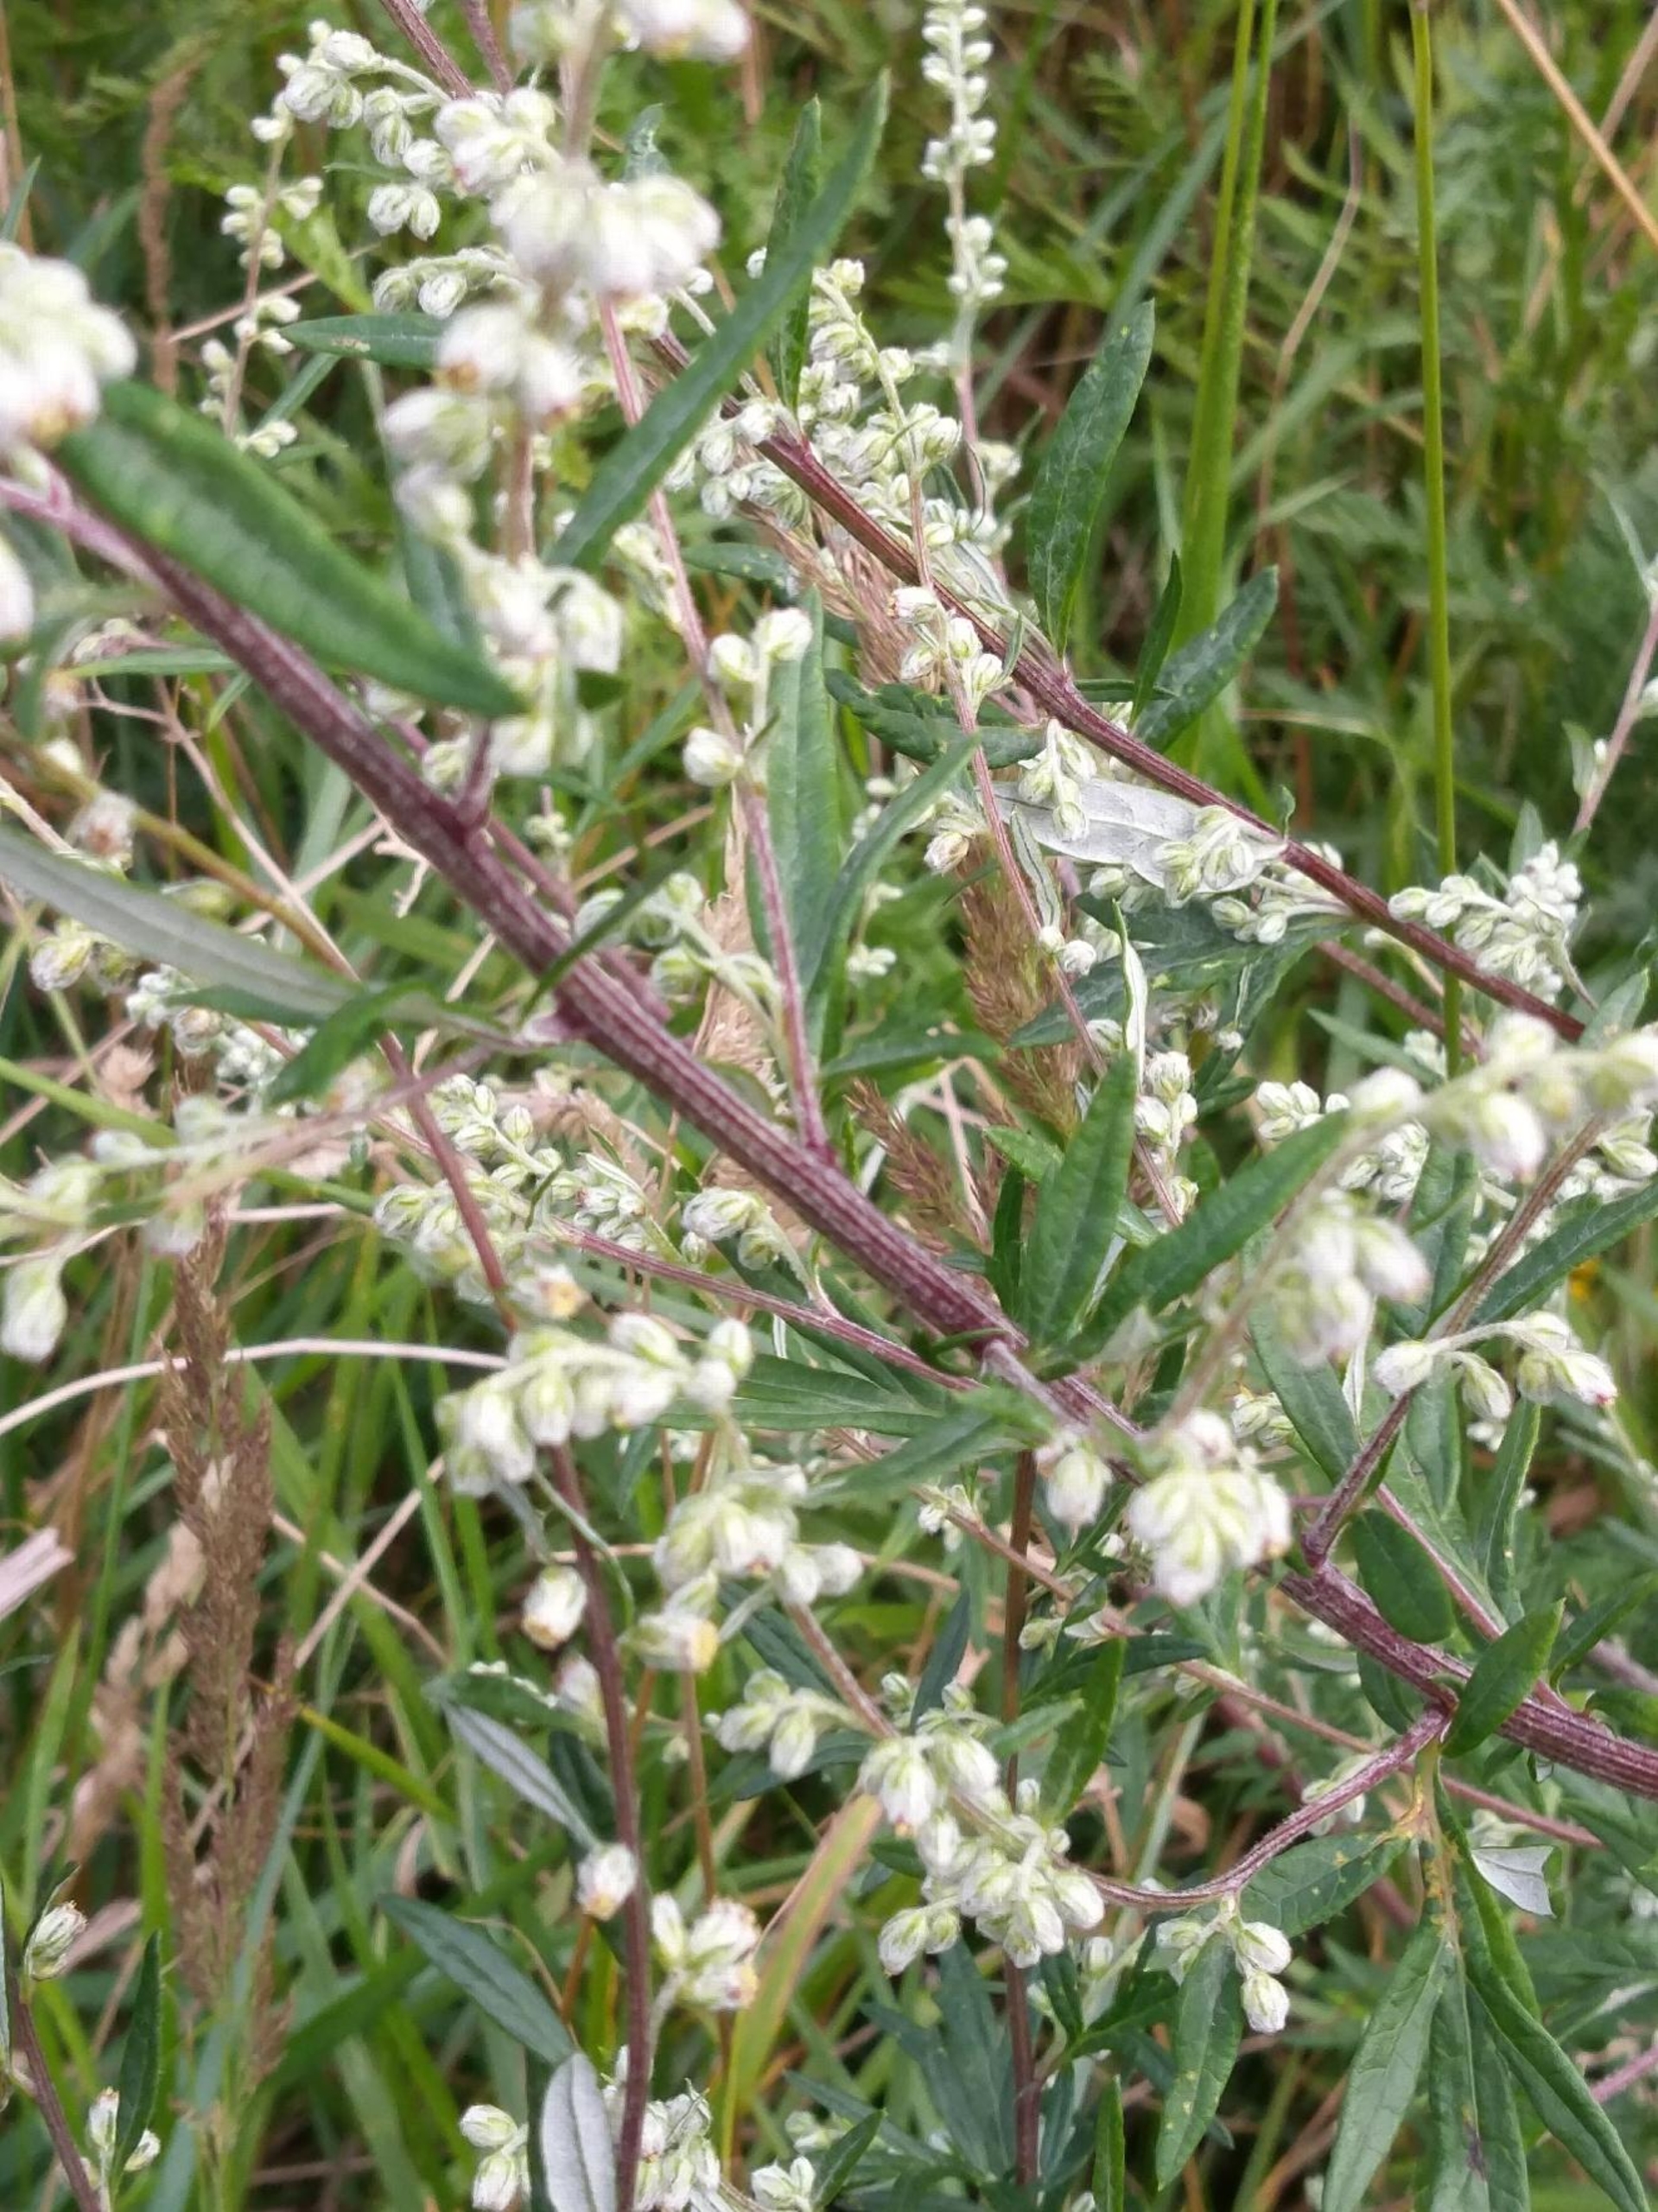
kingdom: Plantae
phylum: Tracheophyta
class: Magnoliopsida
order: Asterales
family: Asteraceae
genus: Artemisia
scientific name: Artemisia vulgaris
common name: Grå-bynke
